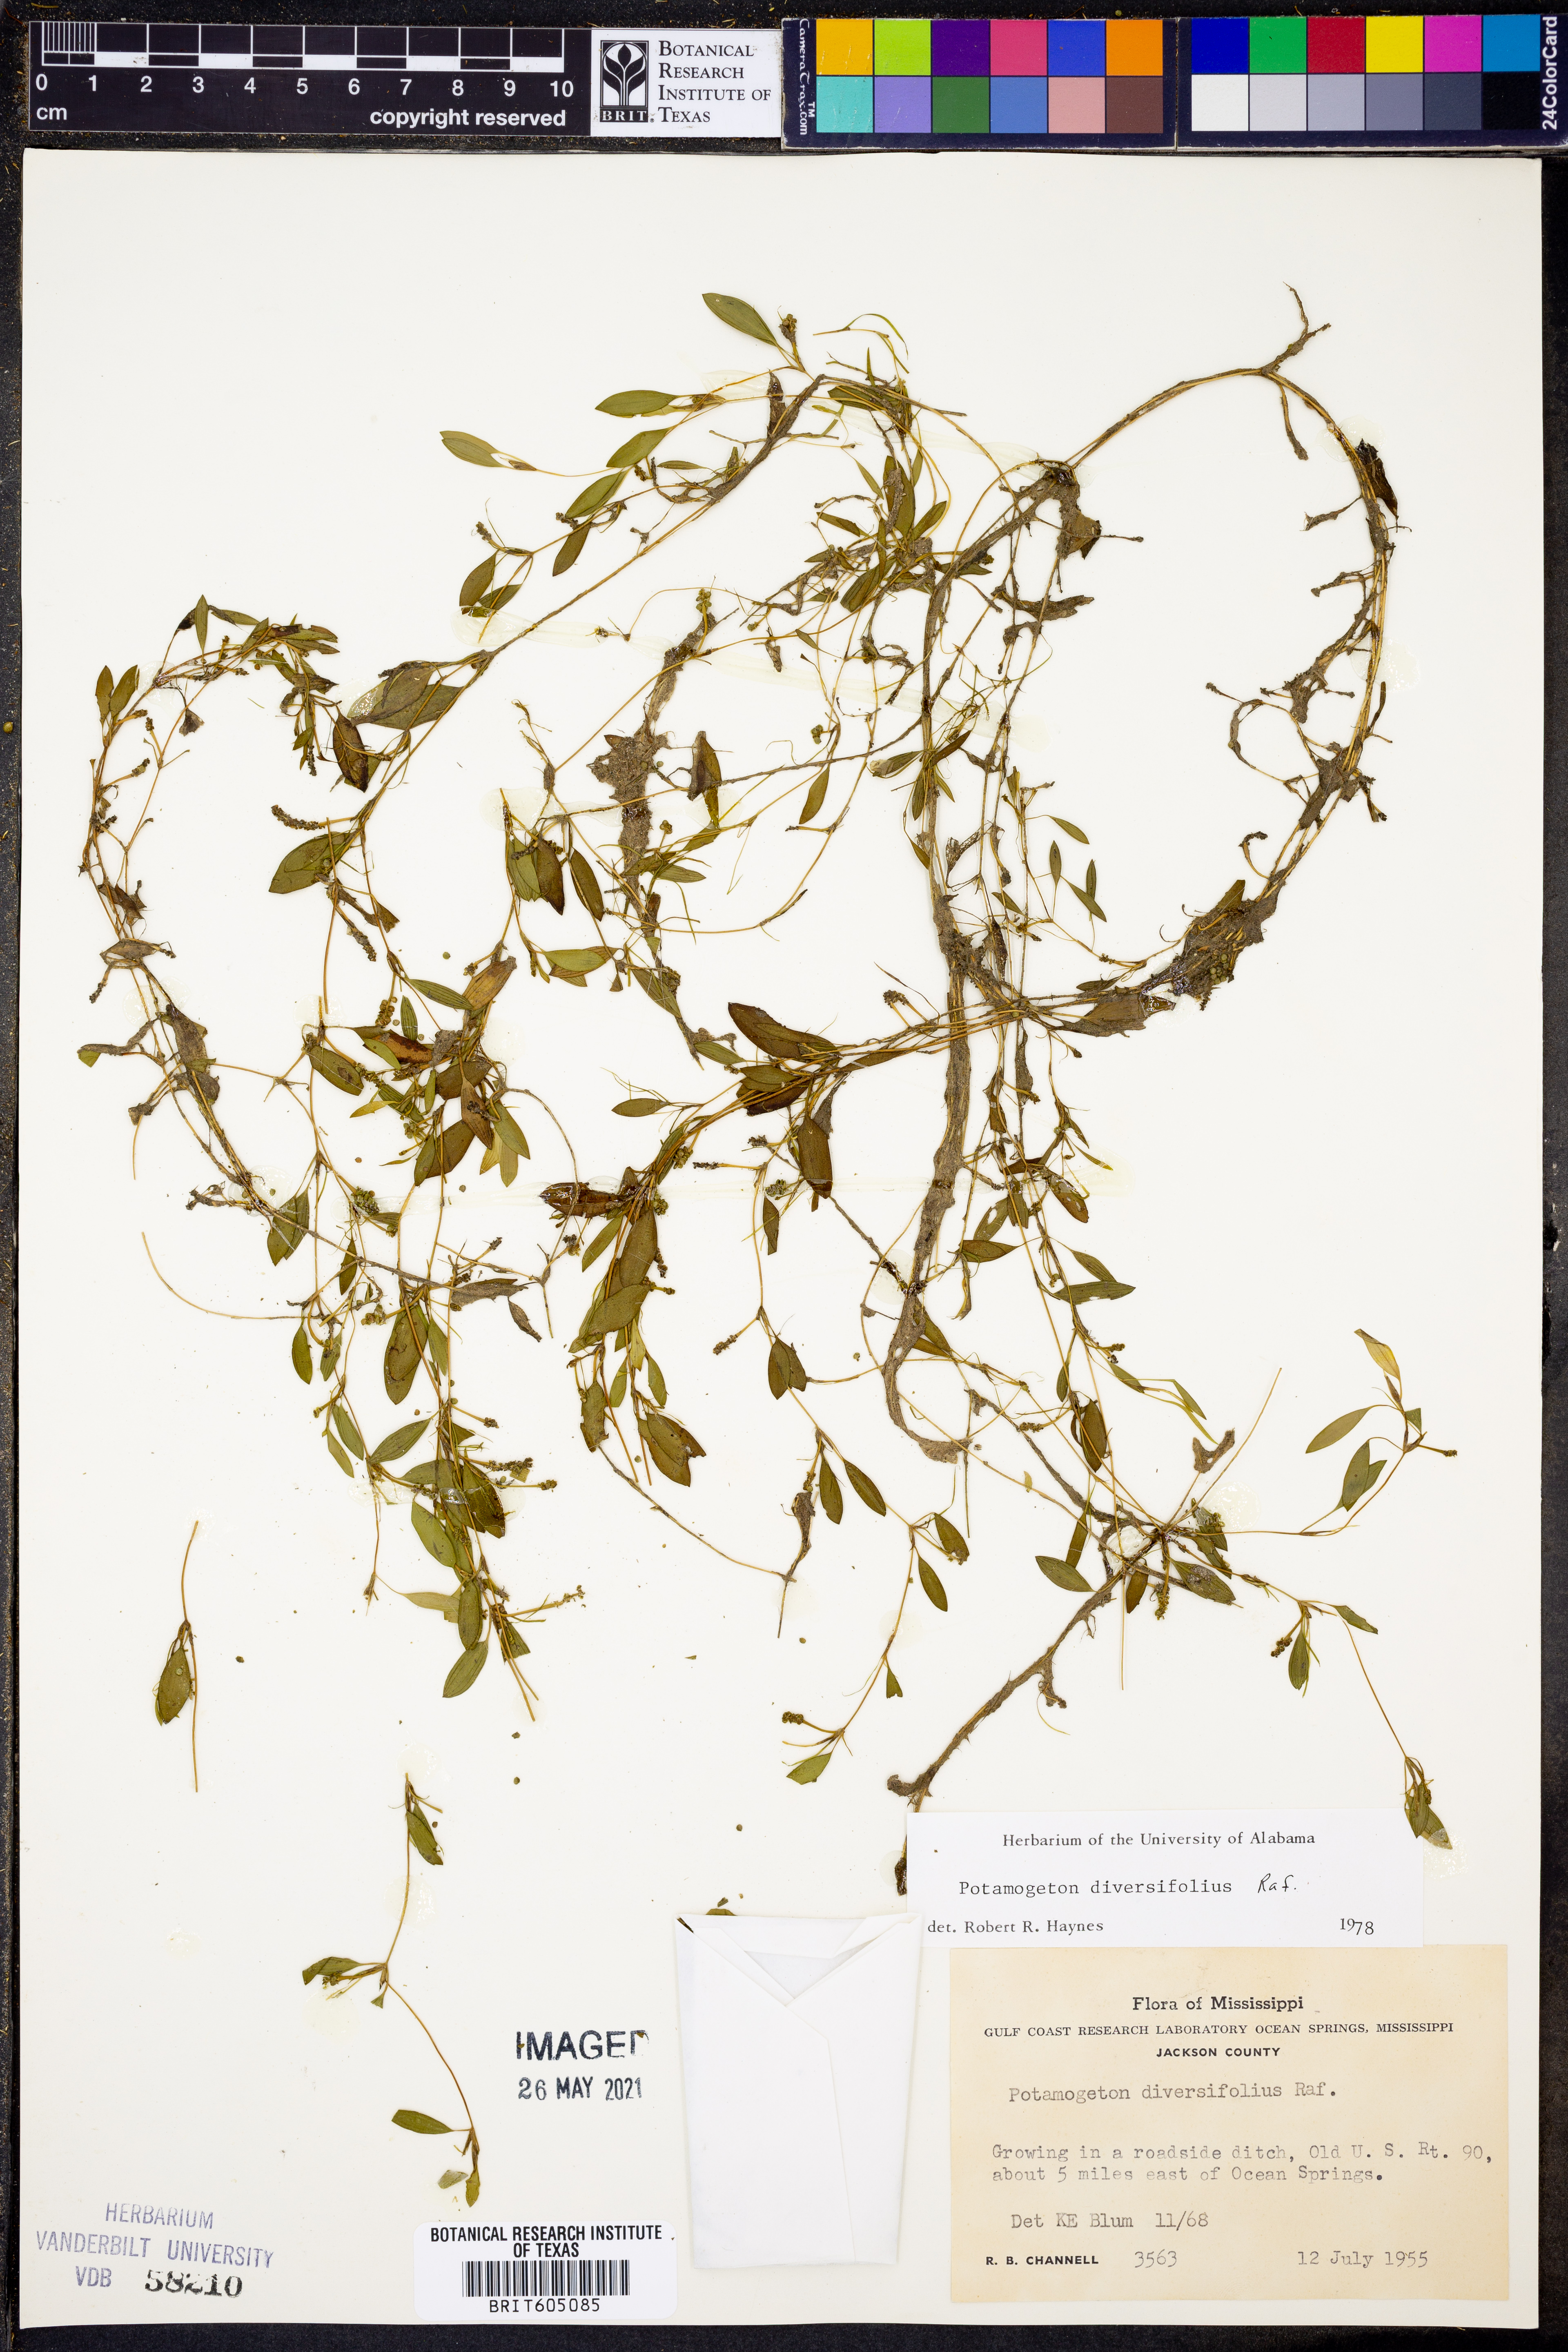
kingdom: Plantae
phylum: Tracheophyta
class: Liliopsida
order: Alismatales
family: Potamogetonaceae
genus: Potamogeton
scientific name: Potamogeton diversifolius
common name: Water-thread pondweed
